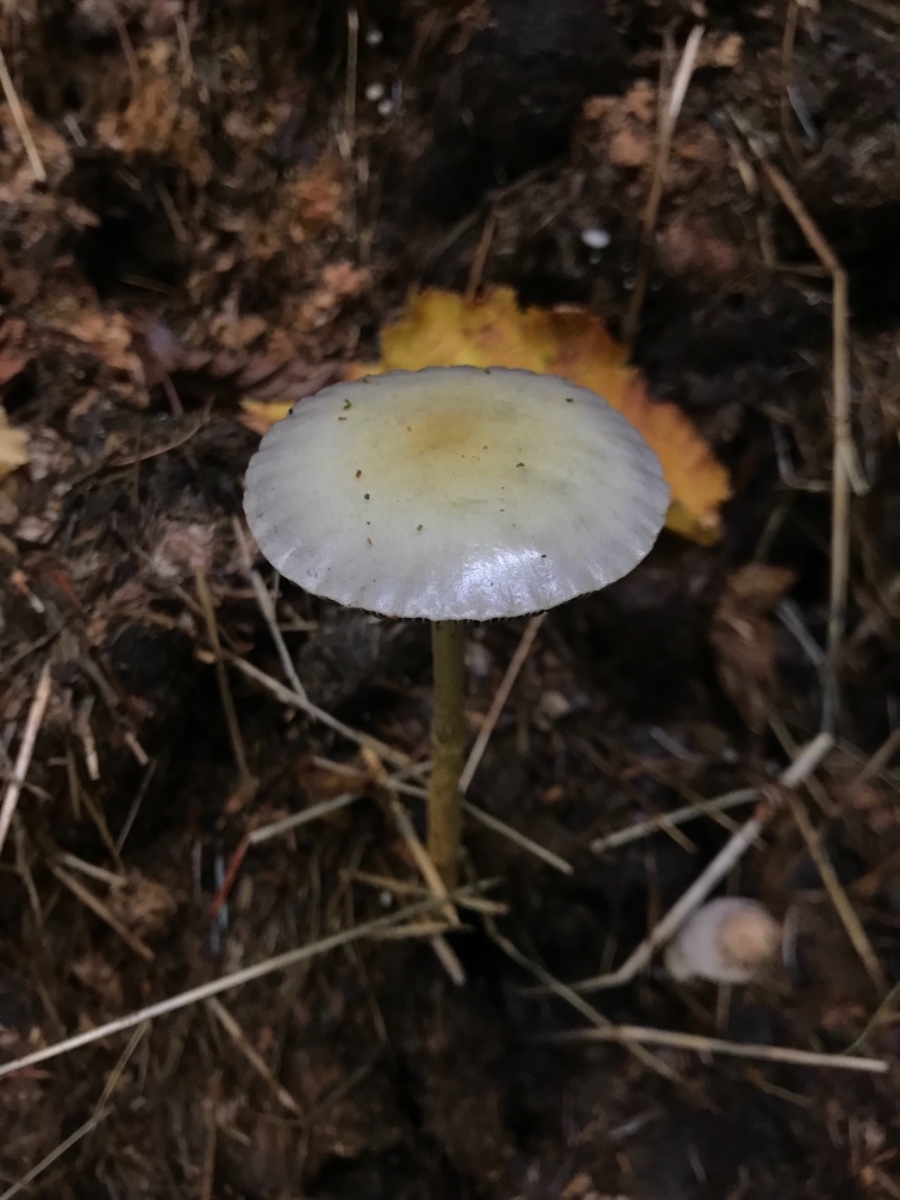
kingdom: Fungi
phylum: Basidiomycota
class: Agaricomycetes
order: Agaricales
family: Strophariaceae
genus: Protostropharia
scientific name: Protostropharia
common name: bredblad
